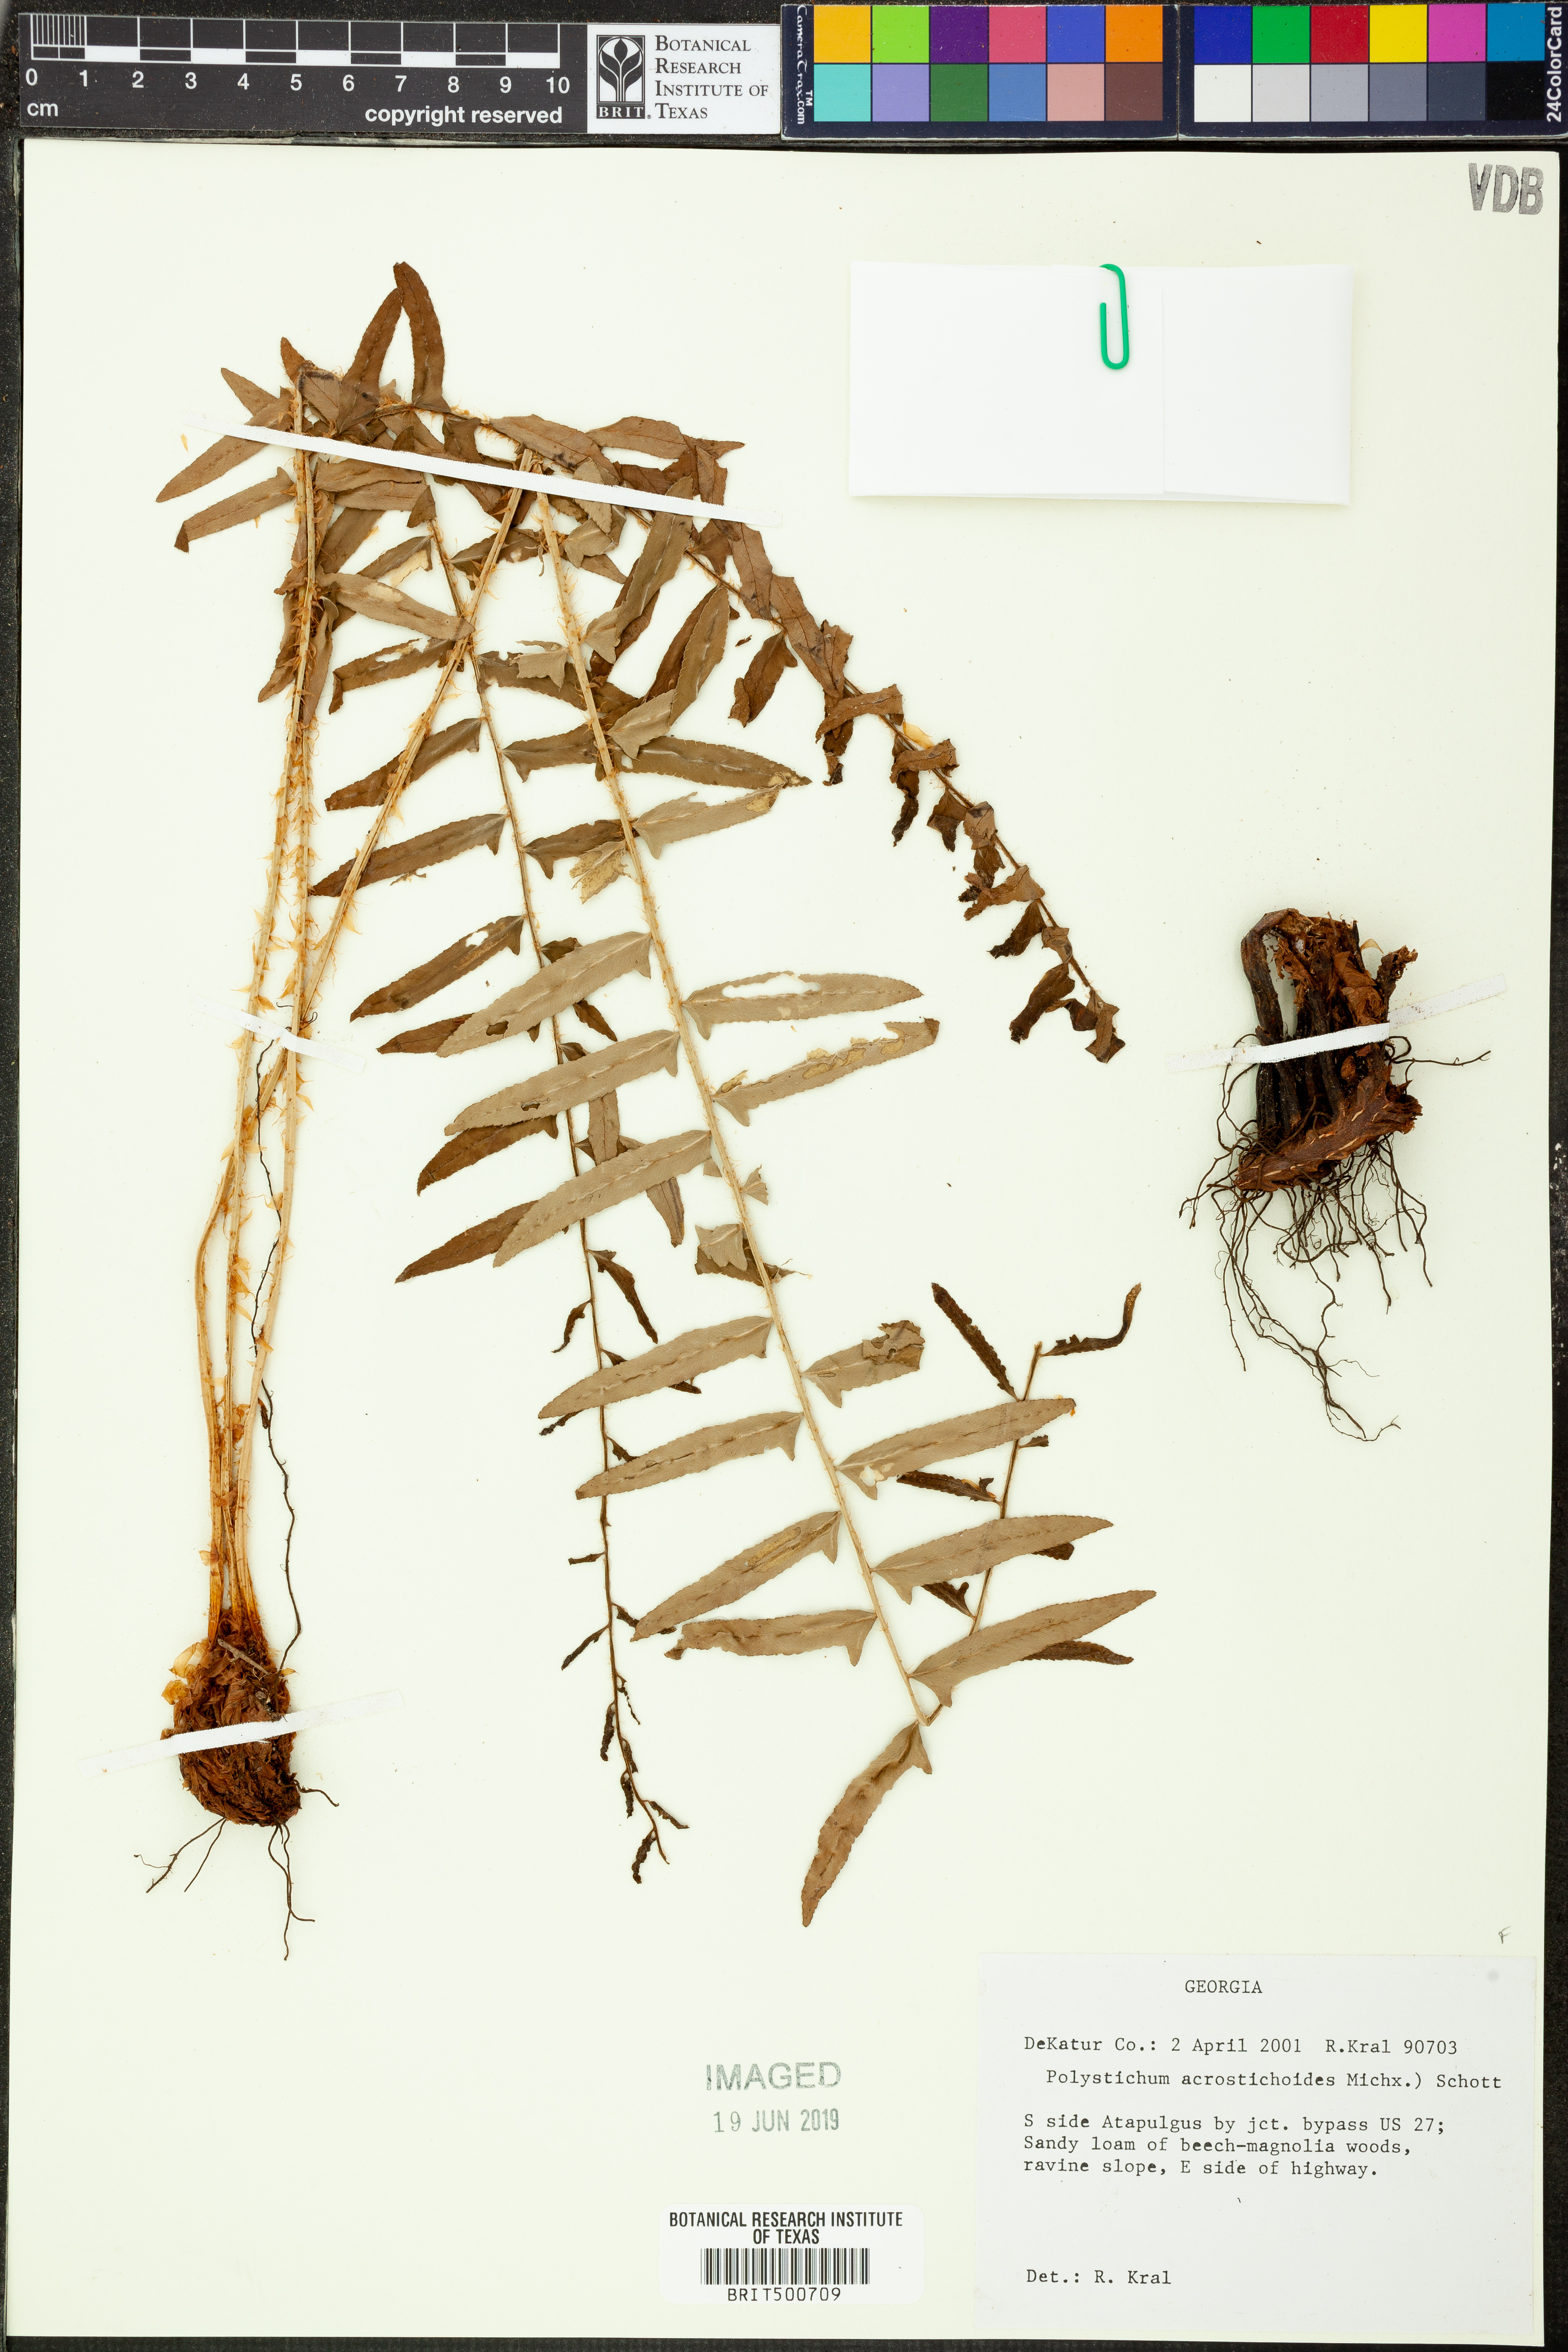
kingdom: Plantae
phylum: Tracheophyta
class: Polypodiopsida
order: Polypodiales
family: Dryopteridaceae
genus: Polystichum
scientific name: Polystichum acrostichoides
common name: Christmas fern
